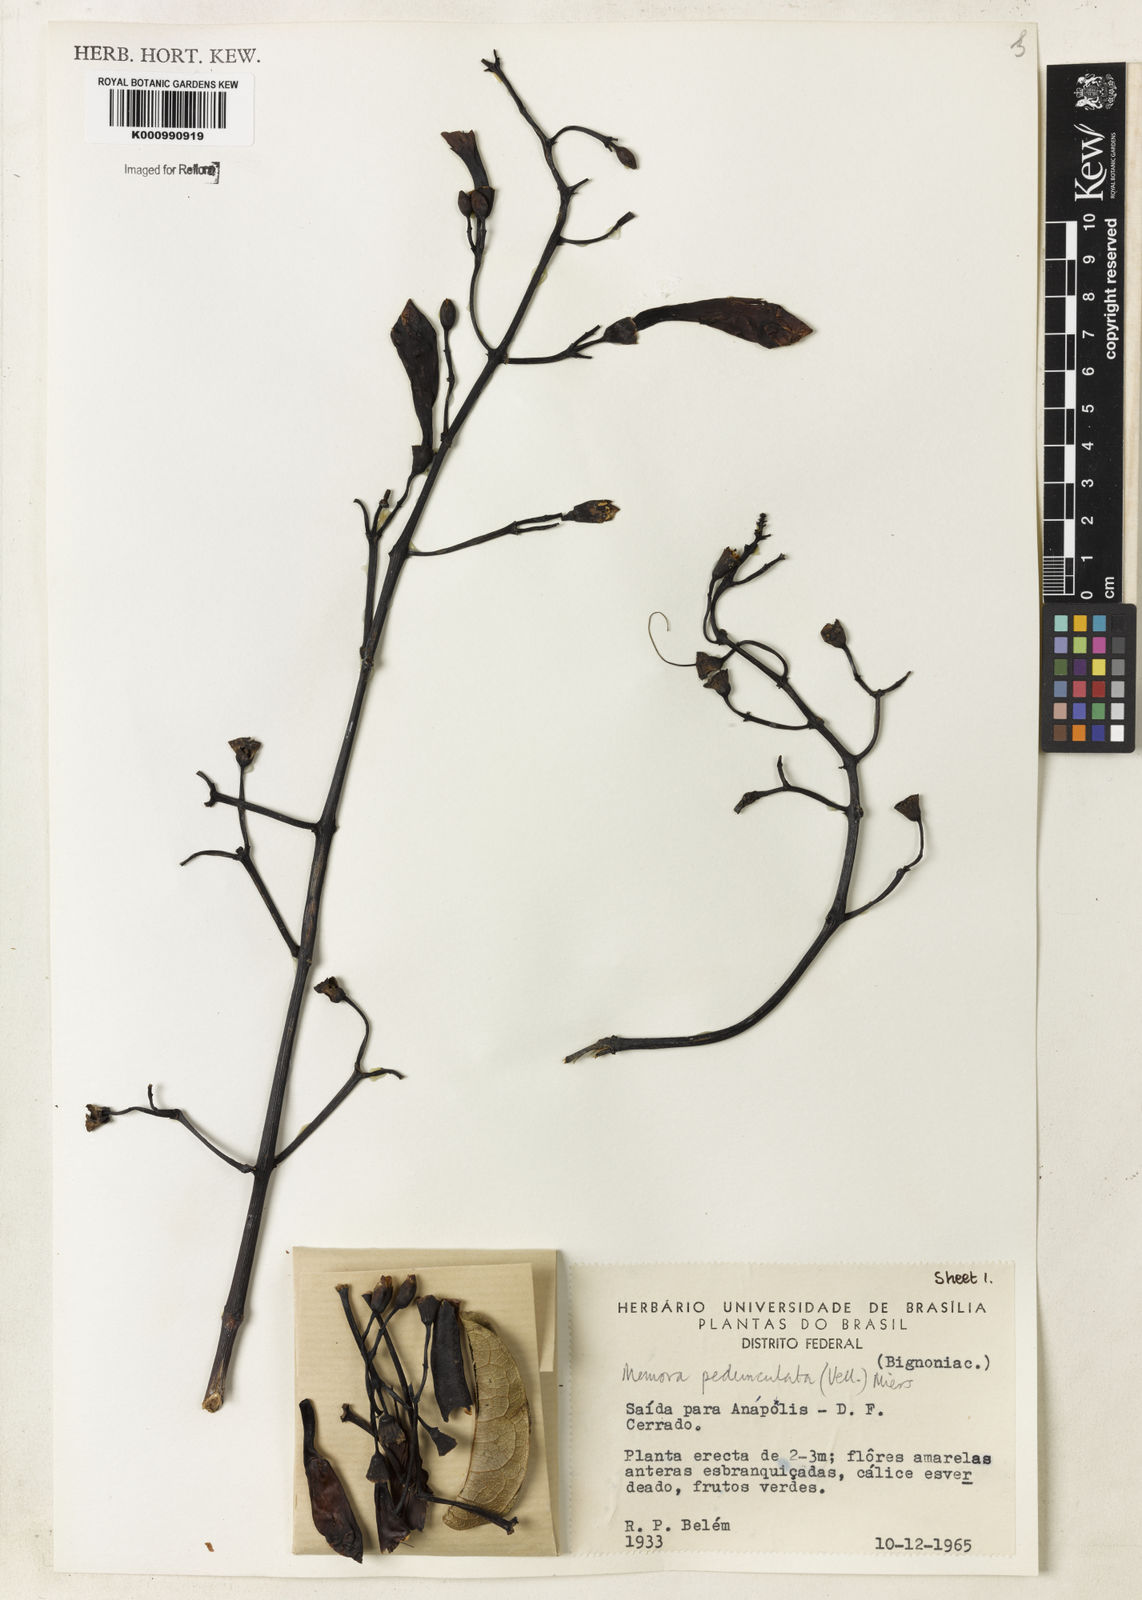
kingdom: Plantae
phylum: Tracheophyta
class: Magnoliopsida
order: Lamiales
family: Bignoniaceae
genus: Adenocalymma
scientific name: Adenocalymma pedunculatum
